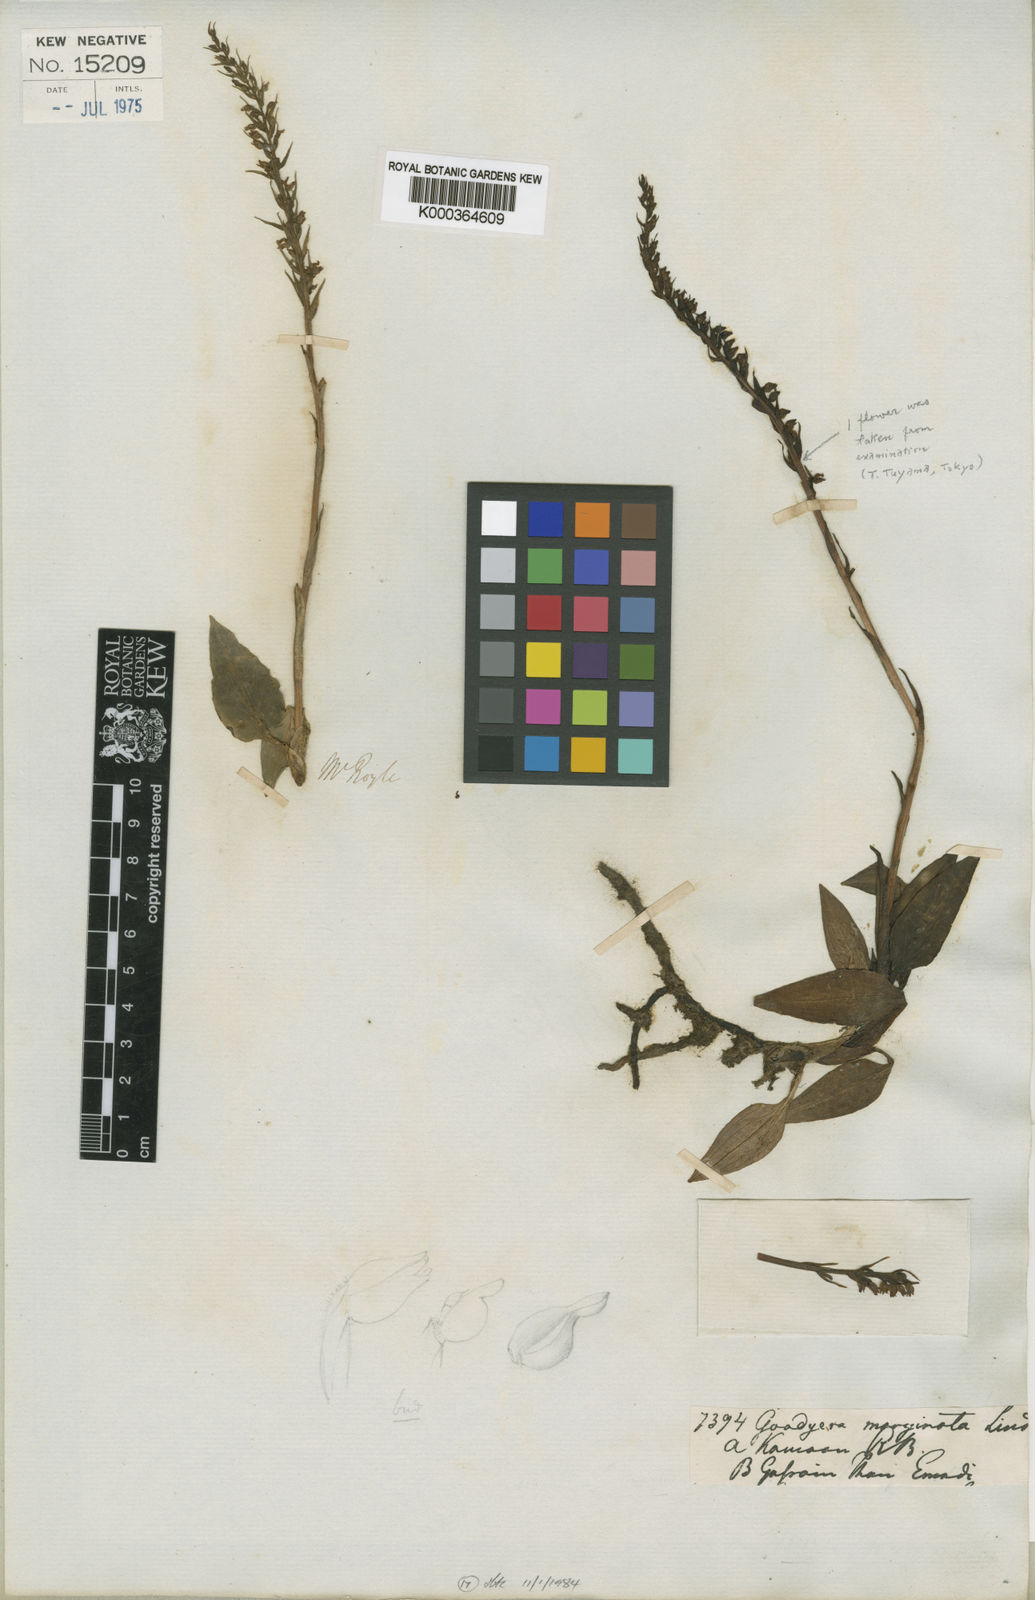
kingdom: Plantae
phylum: Tracheophyta
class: Liliopsida
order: Asparagales
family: Orchidaceae
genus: Goodyera
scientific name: Goodyera marginata
